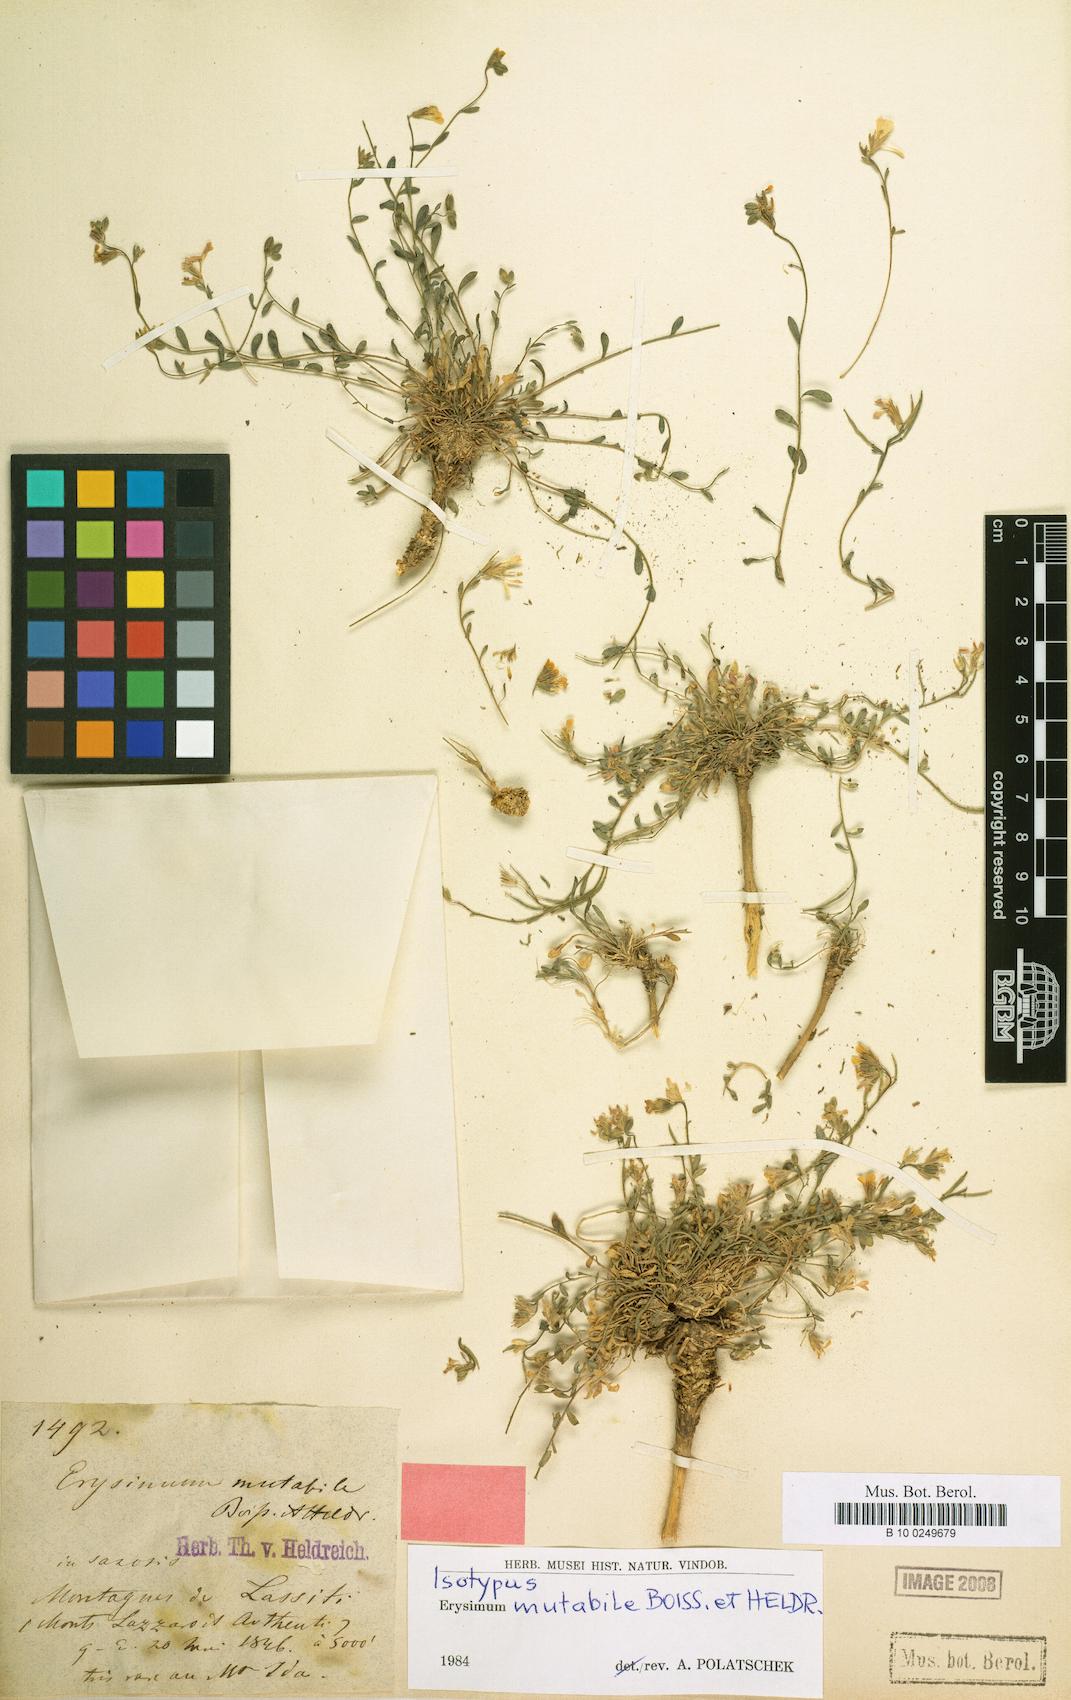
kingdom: Plantae
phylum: Tracheophyta
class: Magnoliopsida
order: Brassicales
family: Brassicaceae
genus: Erysimum
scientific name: Erysimum mutabile
